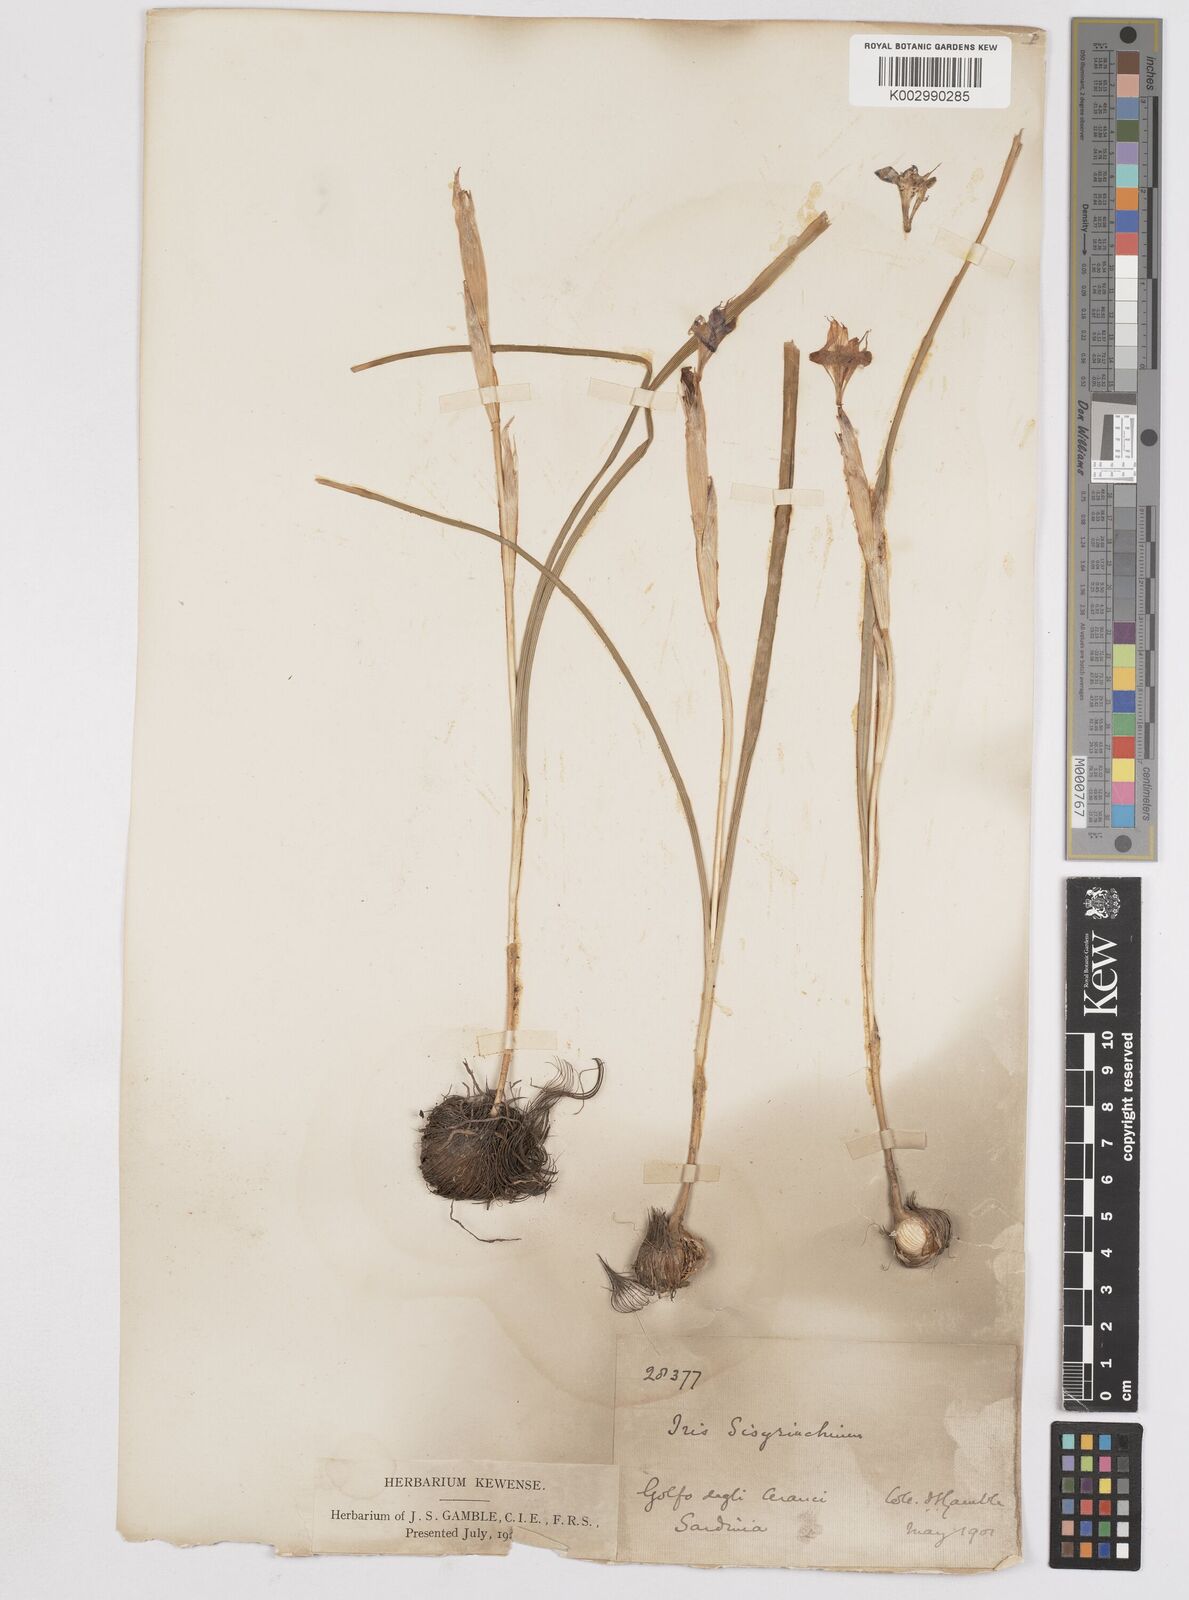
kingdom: Plantae
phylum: Tracheophyta
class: Liliopsida
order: Asparagales
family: Iridaceae
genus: Moraea
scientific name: Moraea sisyrinchium
